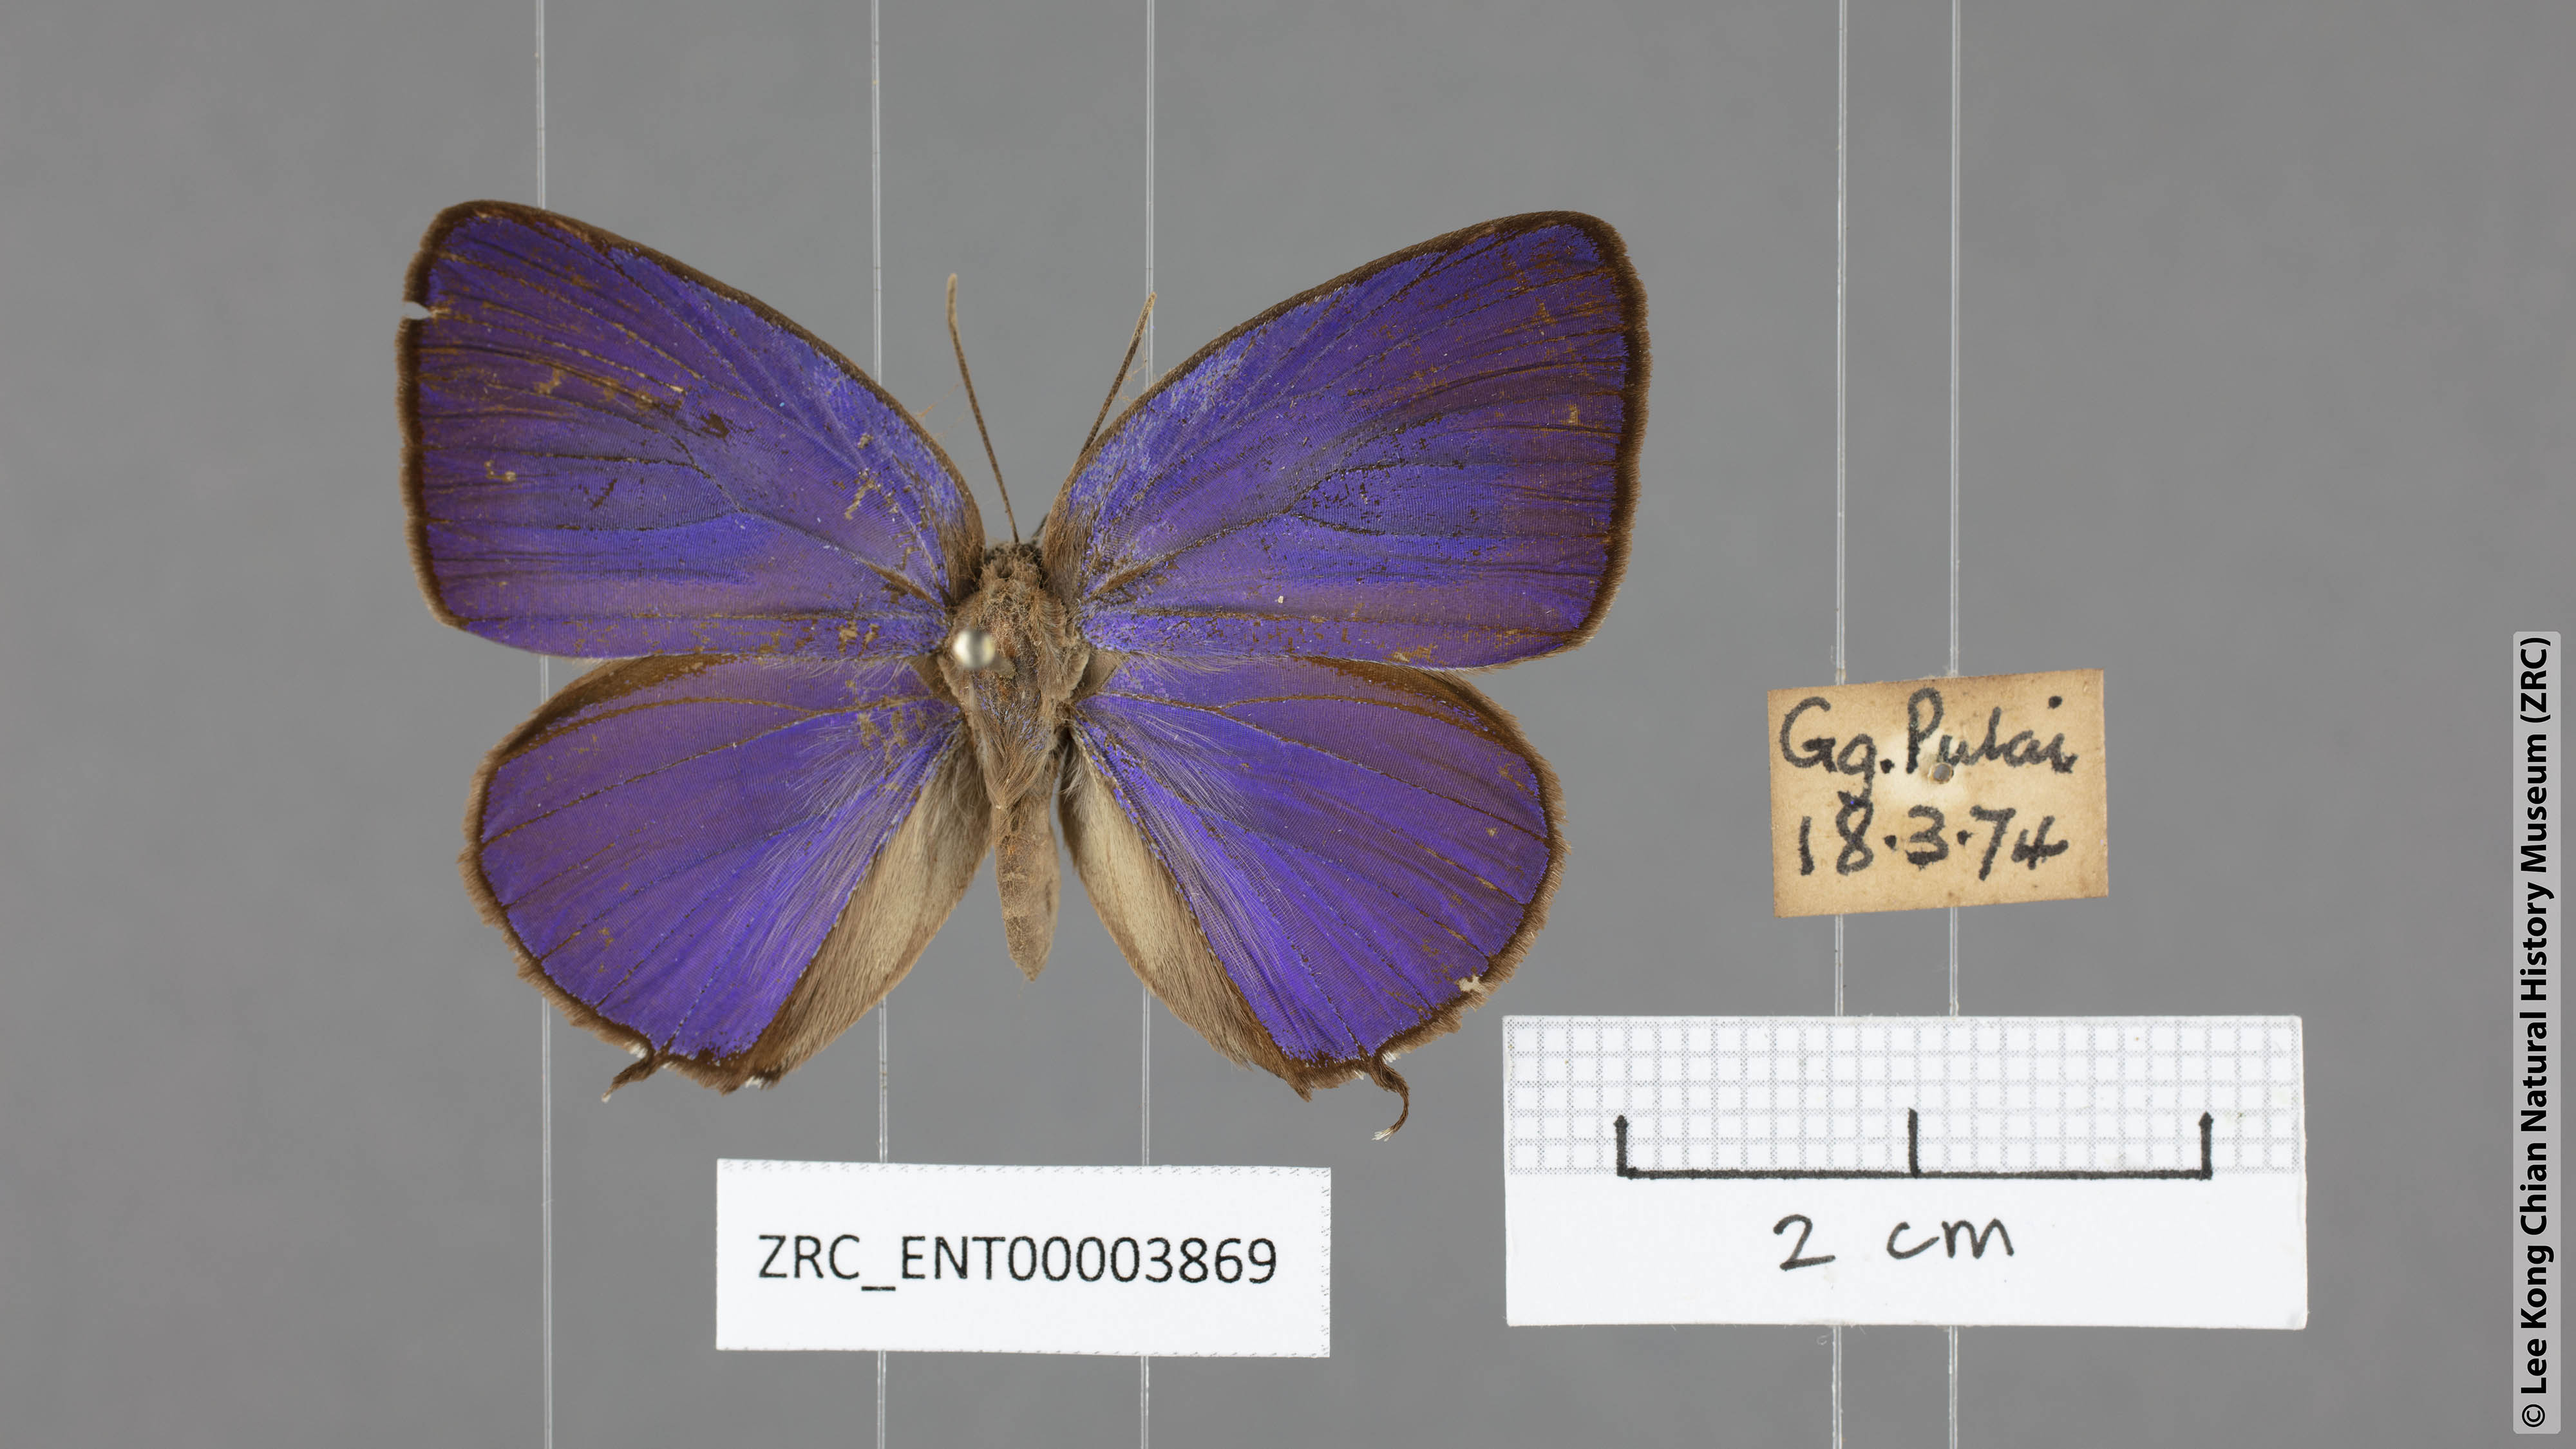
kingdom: Animalia
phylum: Arthropoda
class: Insecta
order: Lepidoptera
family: Lycaenidae
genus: Arhopala
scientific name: Arhopala atosia
